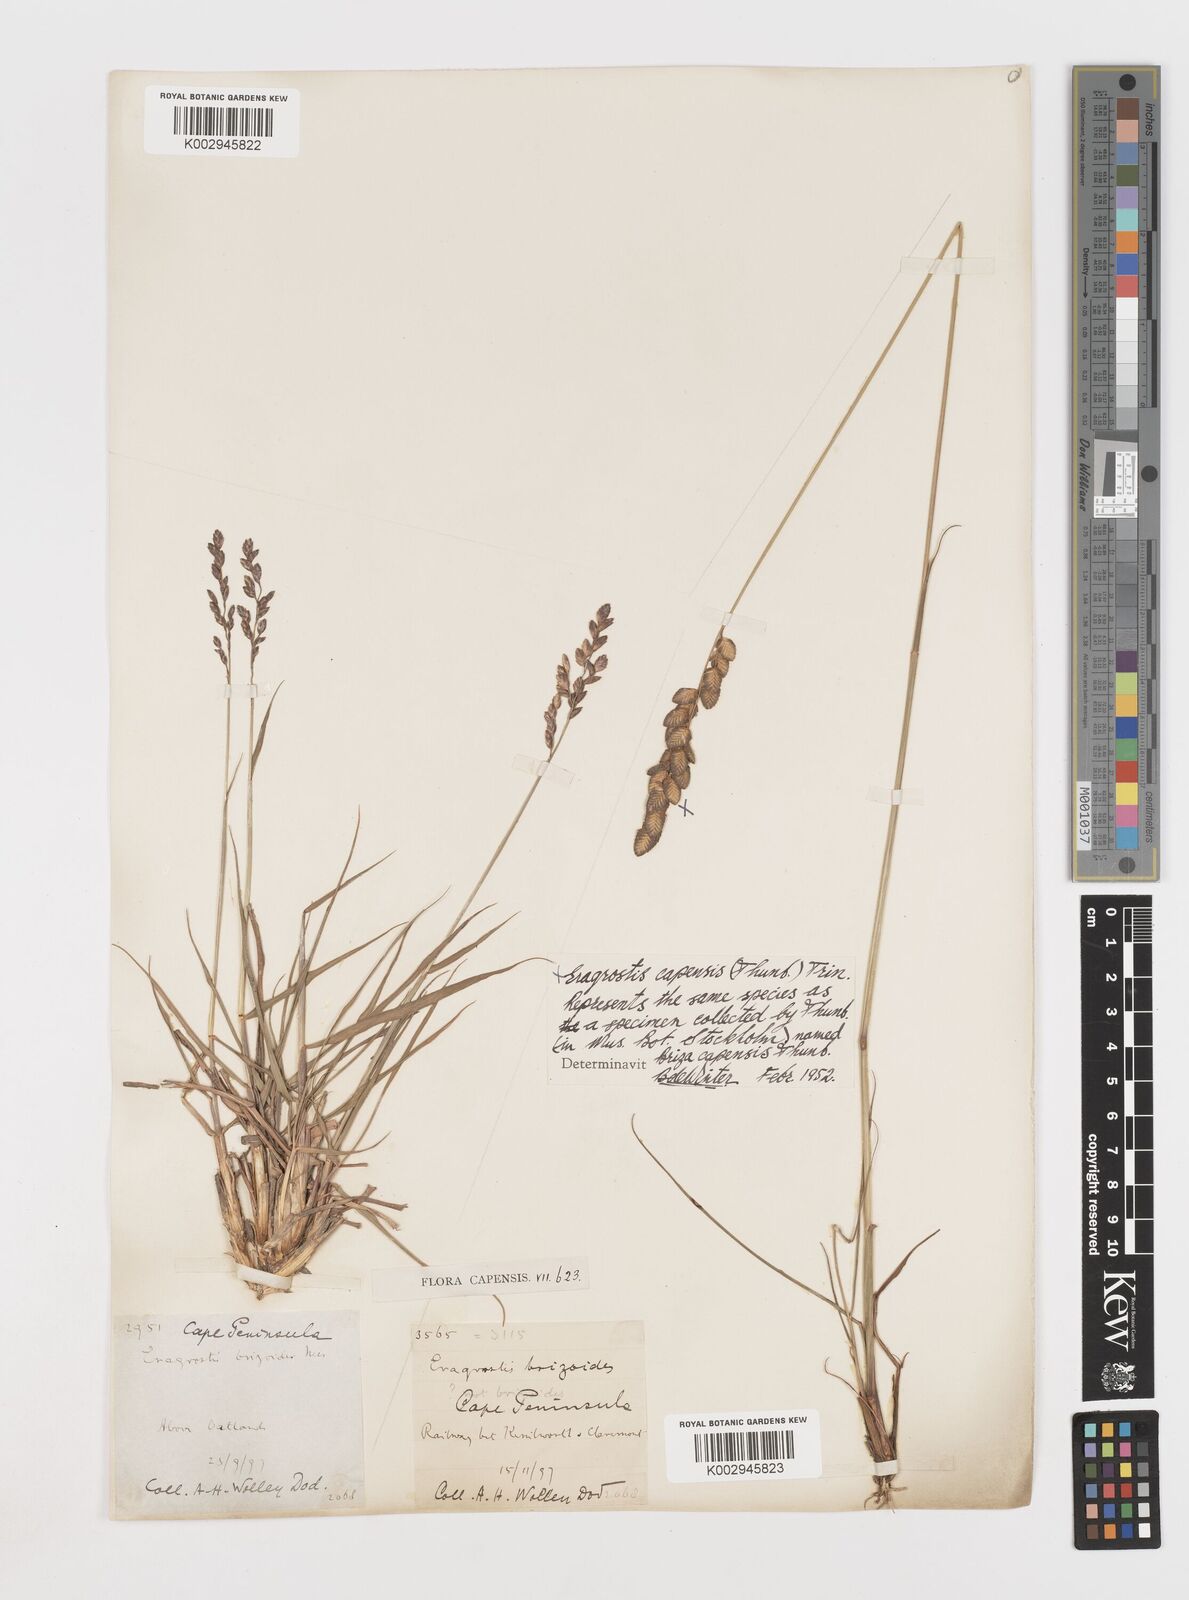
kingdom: Plantae
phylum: Tracheophyta
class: Liliopsida
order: Poales
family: Poaceae
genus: Eragrostis
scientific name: Eragrostis capensis
